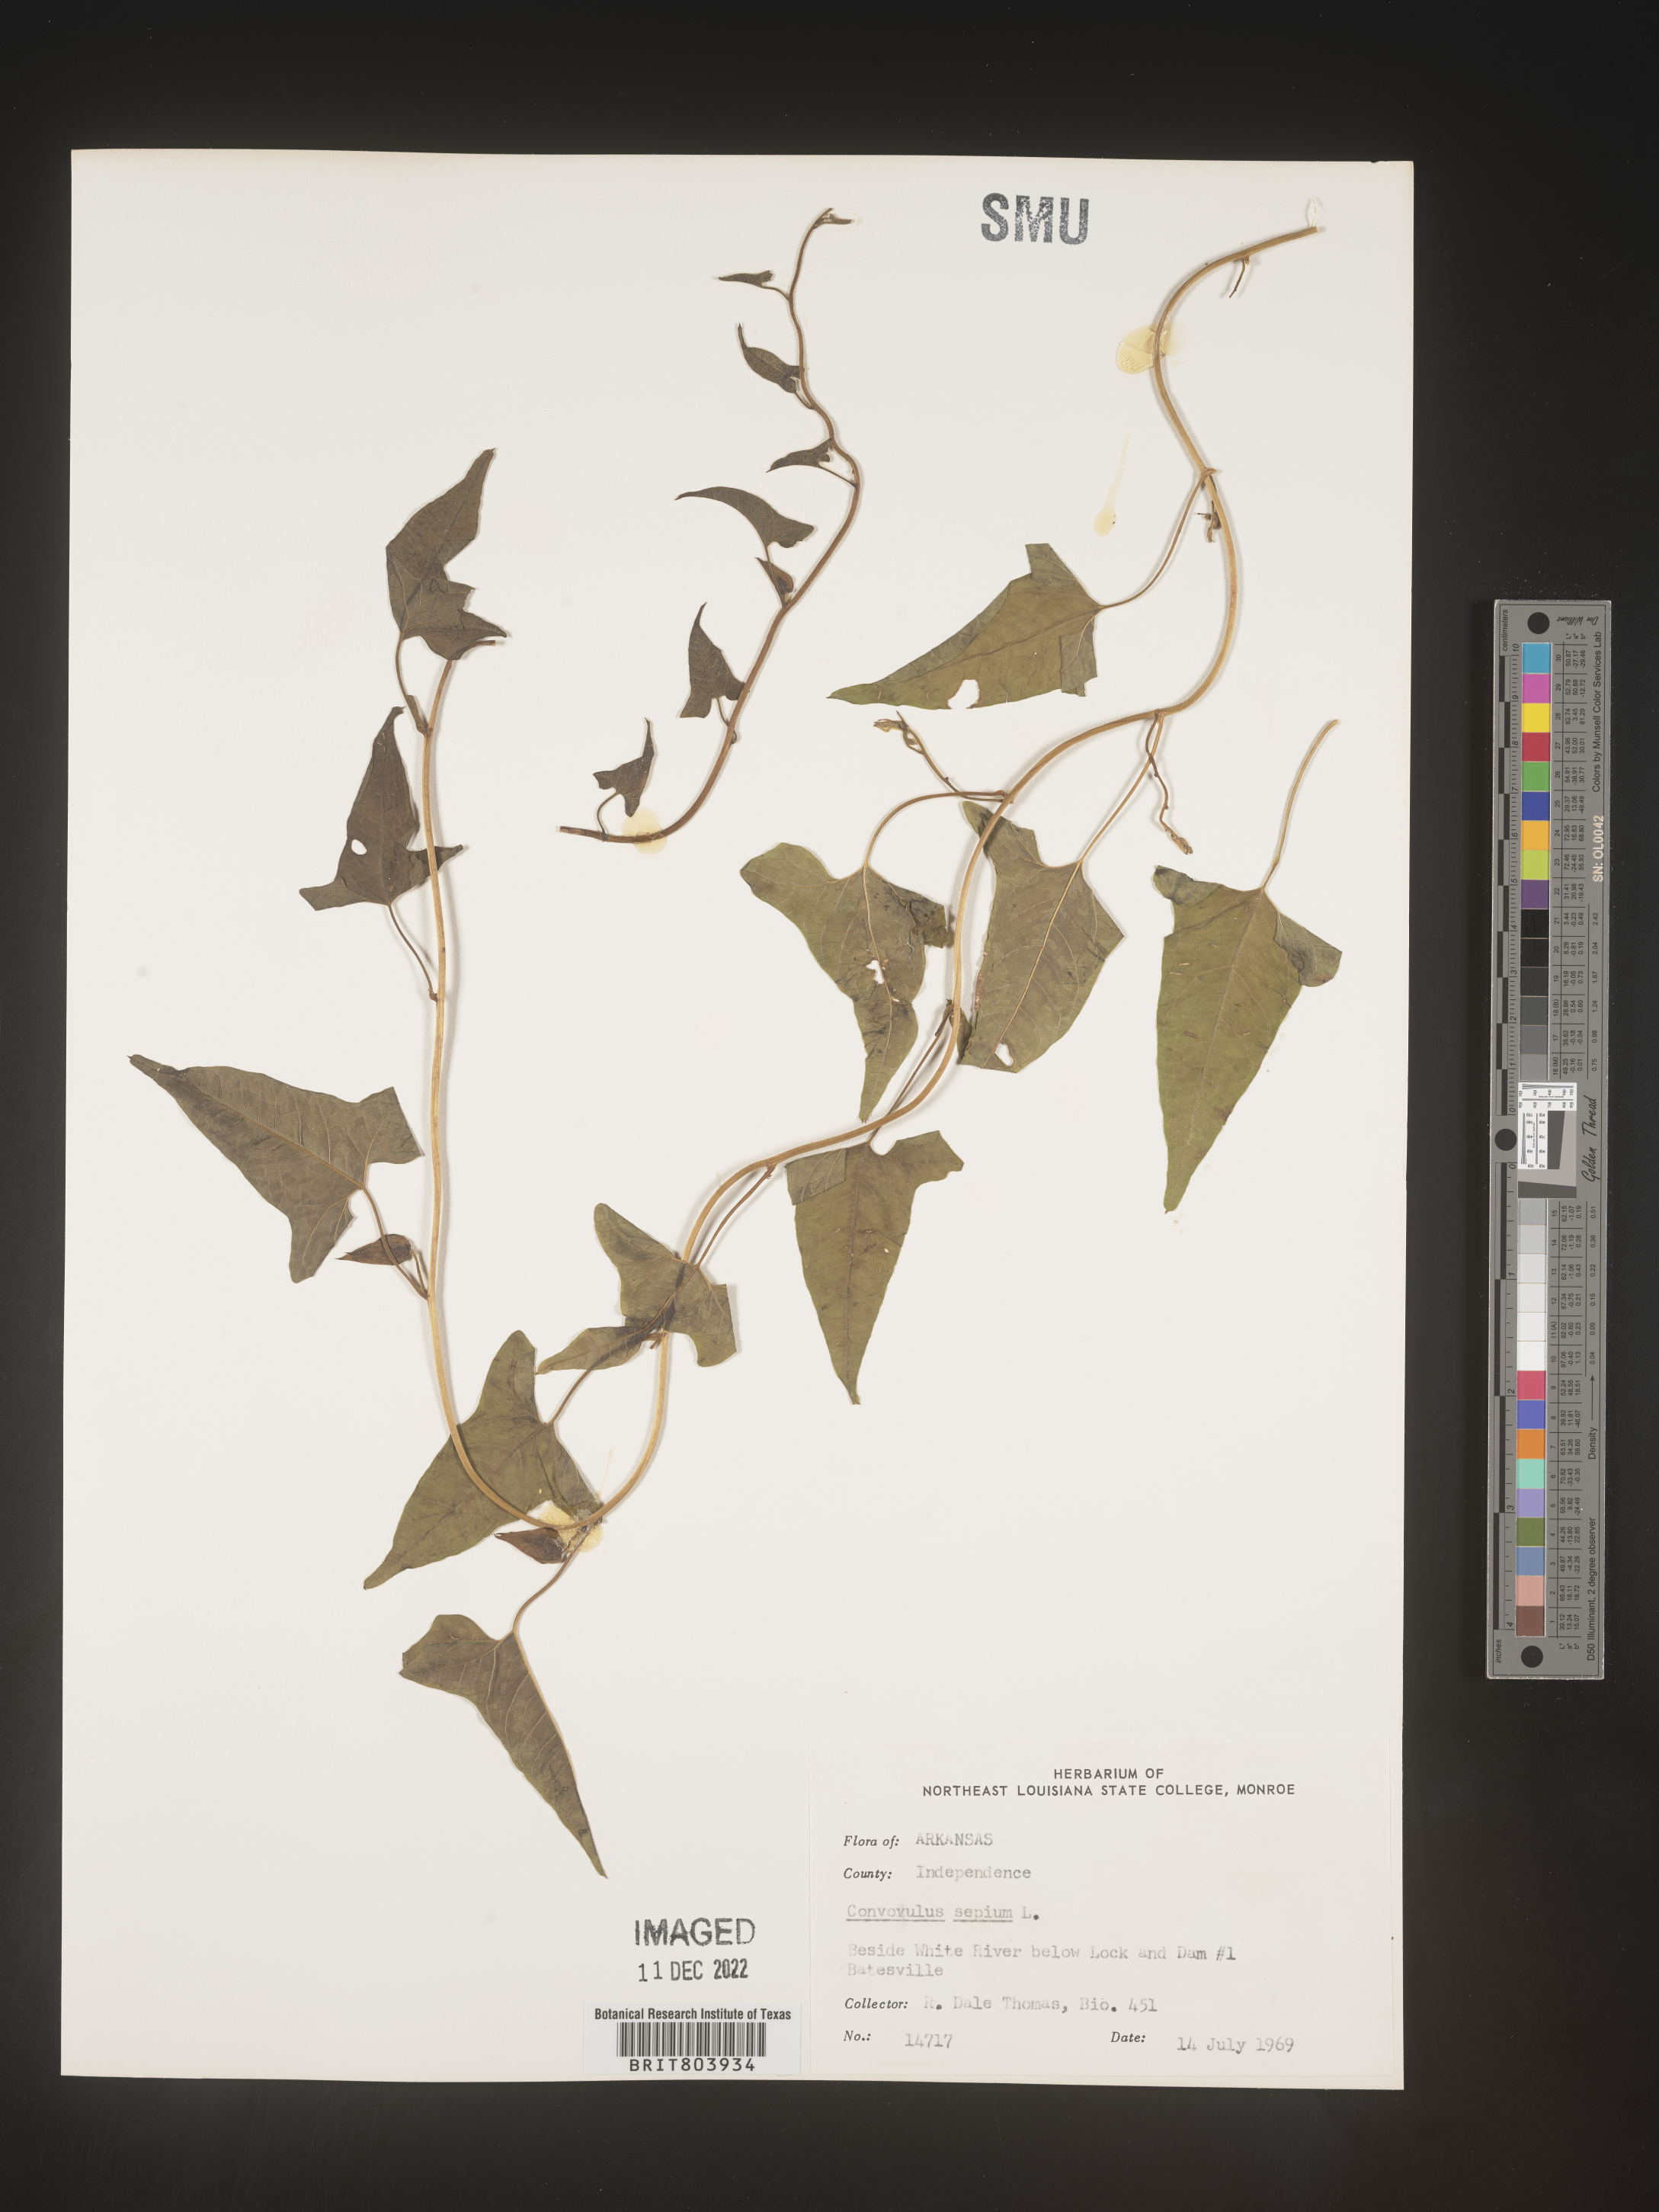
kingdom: Plantae
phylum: Tracheophyta
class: Magnoliopsida
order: Solanales
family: Convolvulaceae
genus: Calystegia
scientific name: Calystegia sepium
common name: Hedge bindweed
